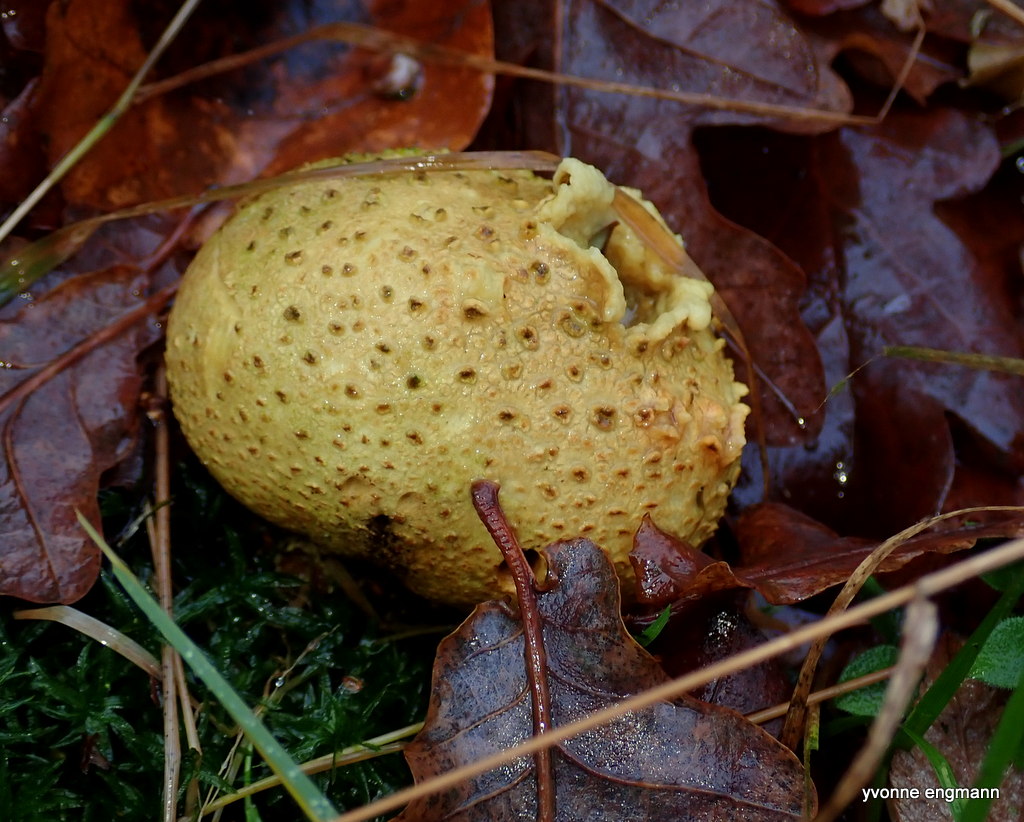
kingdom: Fungi
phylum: Basidiomycota
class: Agaricomycetes
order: Boletales
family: Sclerodermataceae
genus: Scleroderma
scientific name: Scleroderma citrinum
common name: almindelig bruskbold
